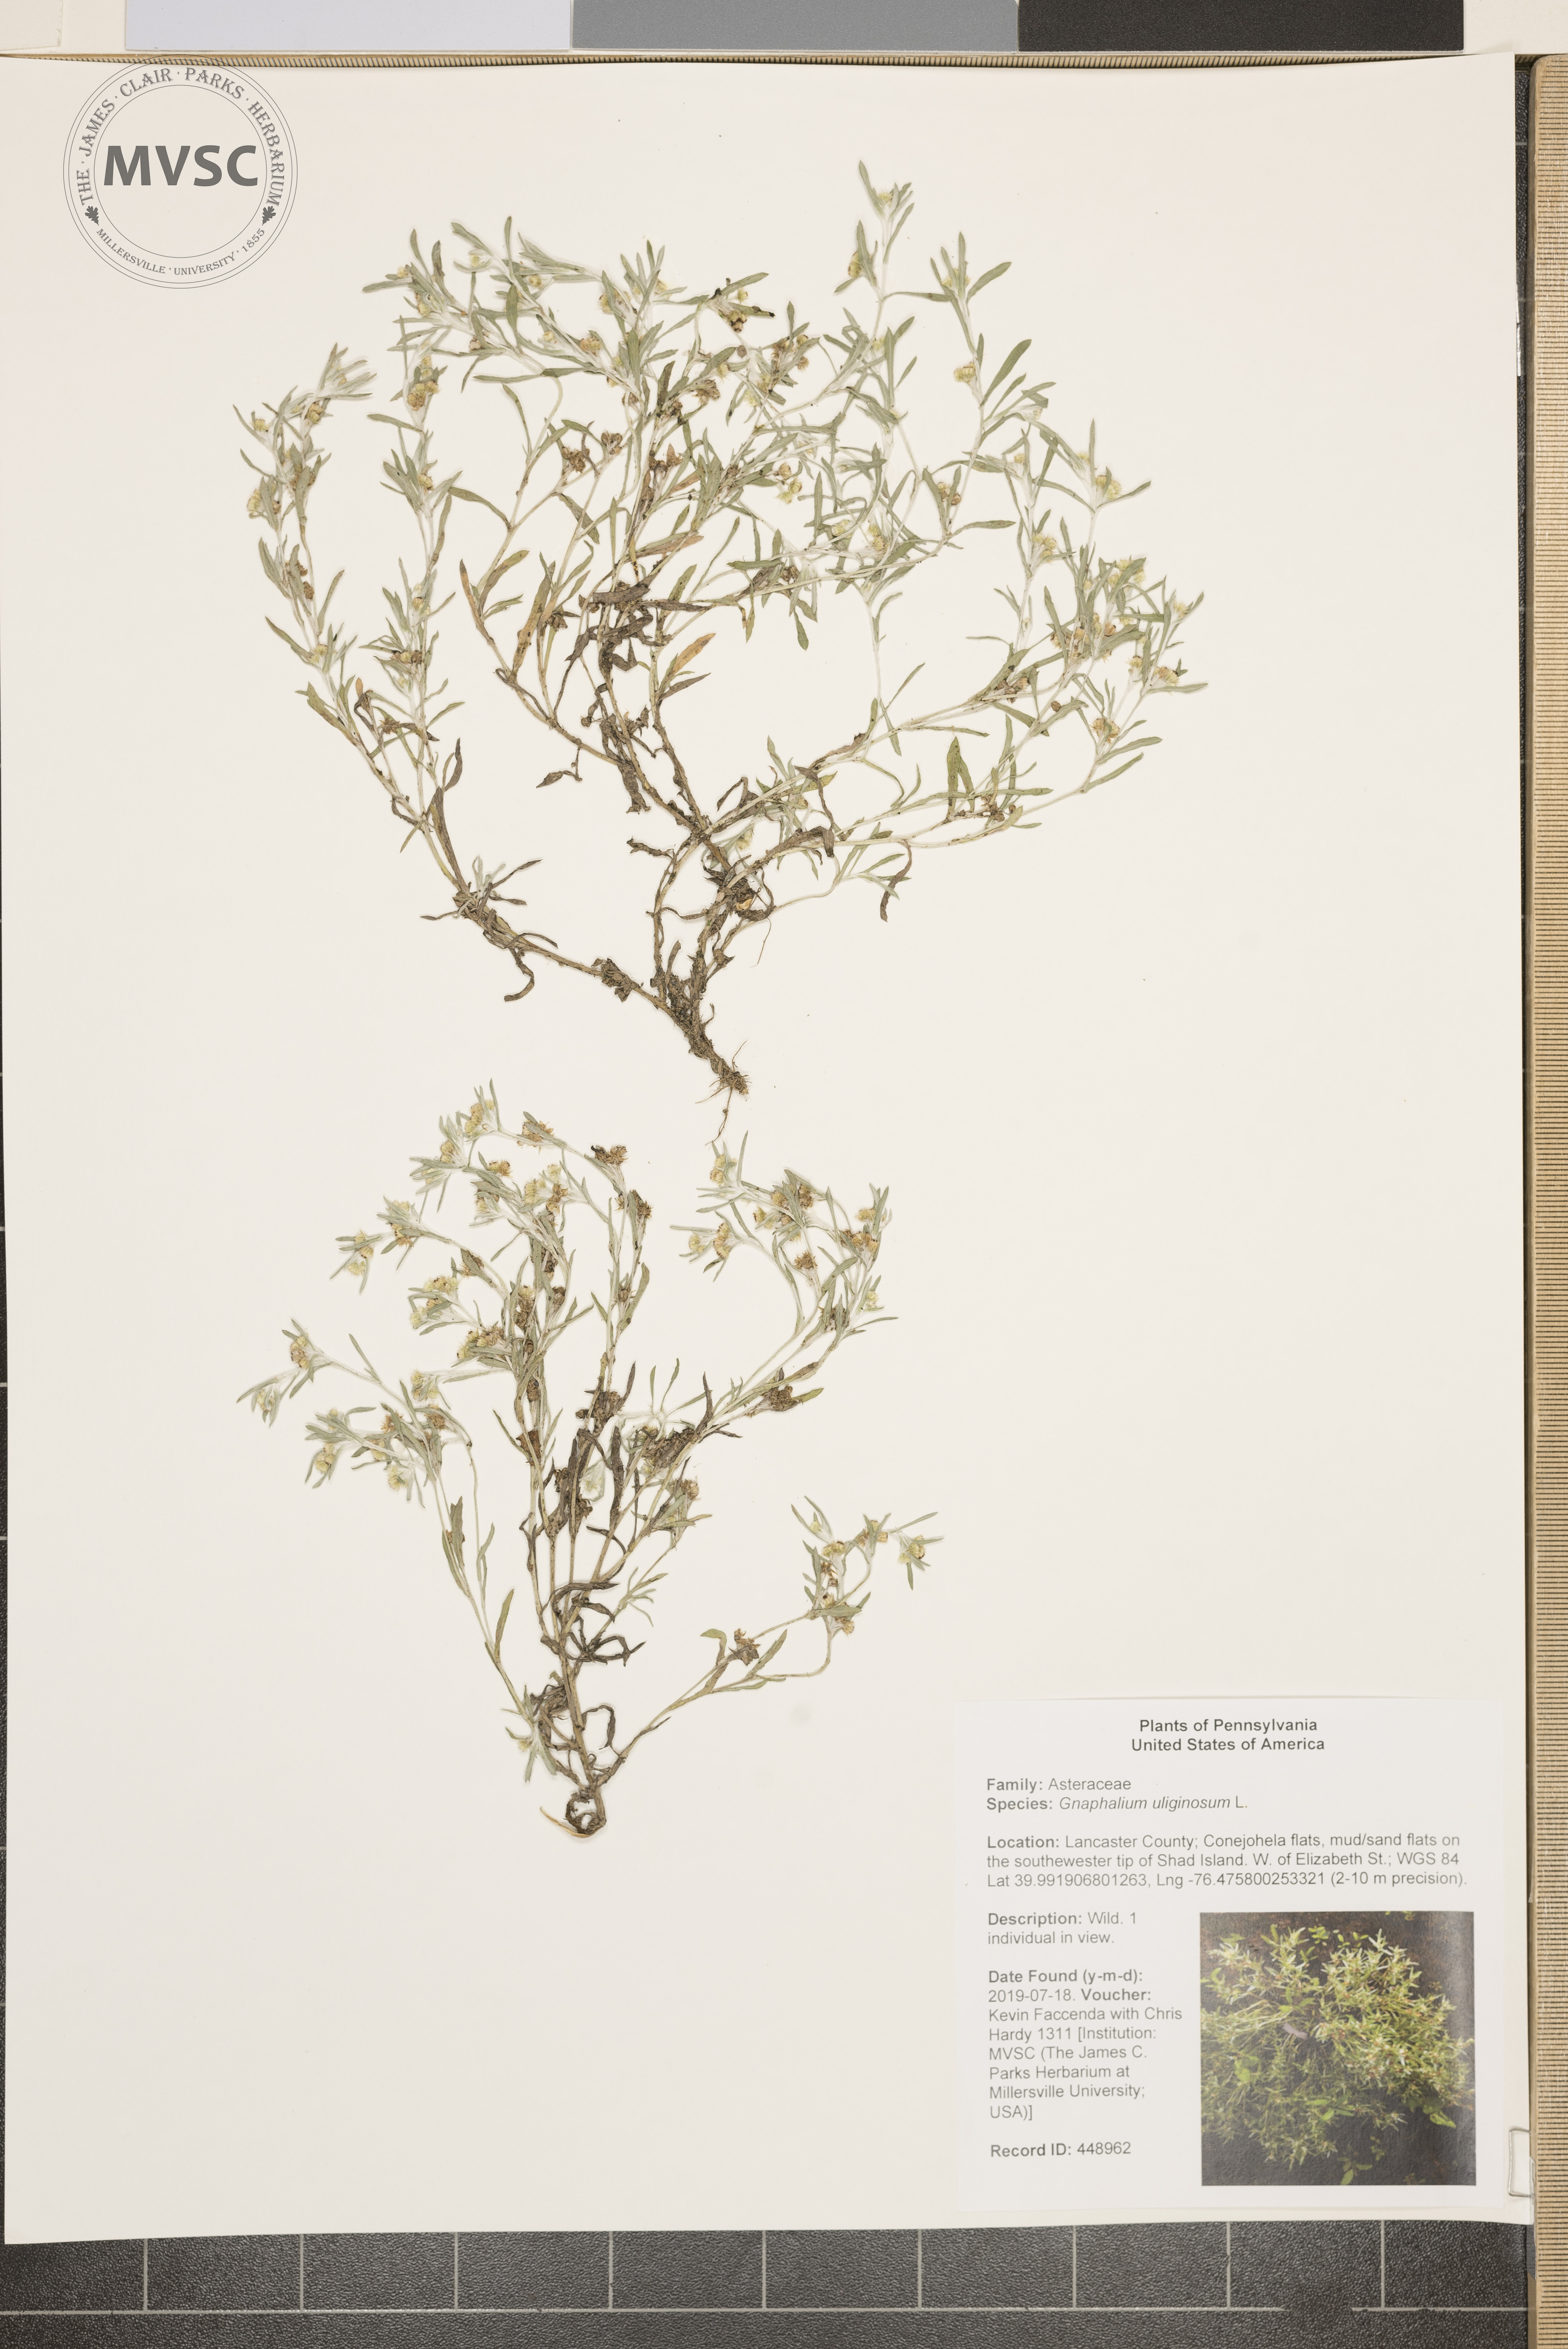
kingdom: Plantae
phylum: Tracheophyta
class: Magnoliopsida
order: Asterales
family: Asteraceae
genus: Gnaphalium
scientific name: Gnaphalium uliginosum
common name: Marsh cudweed
